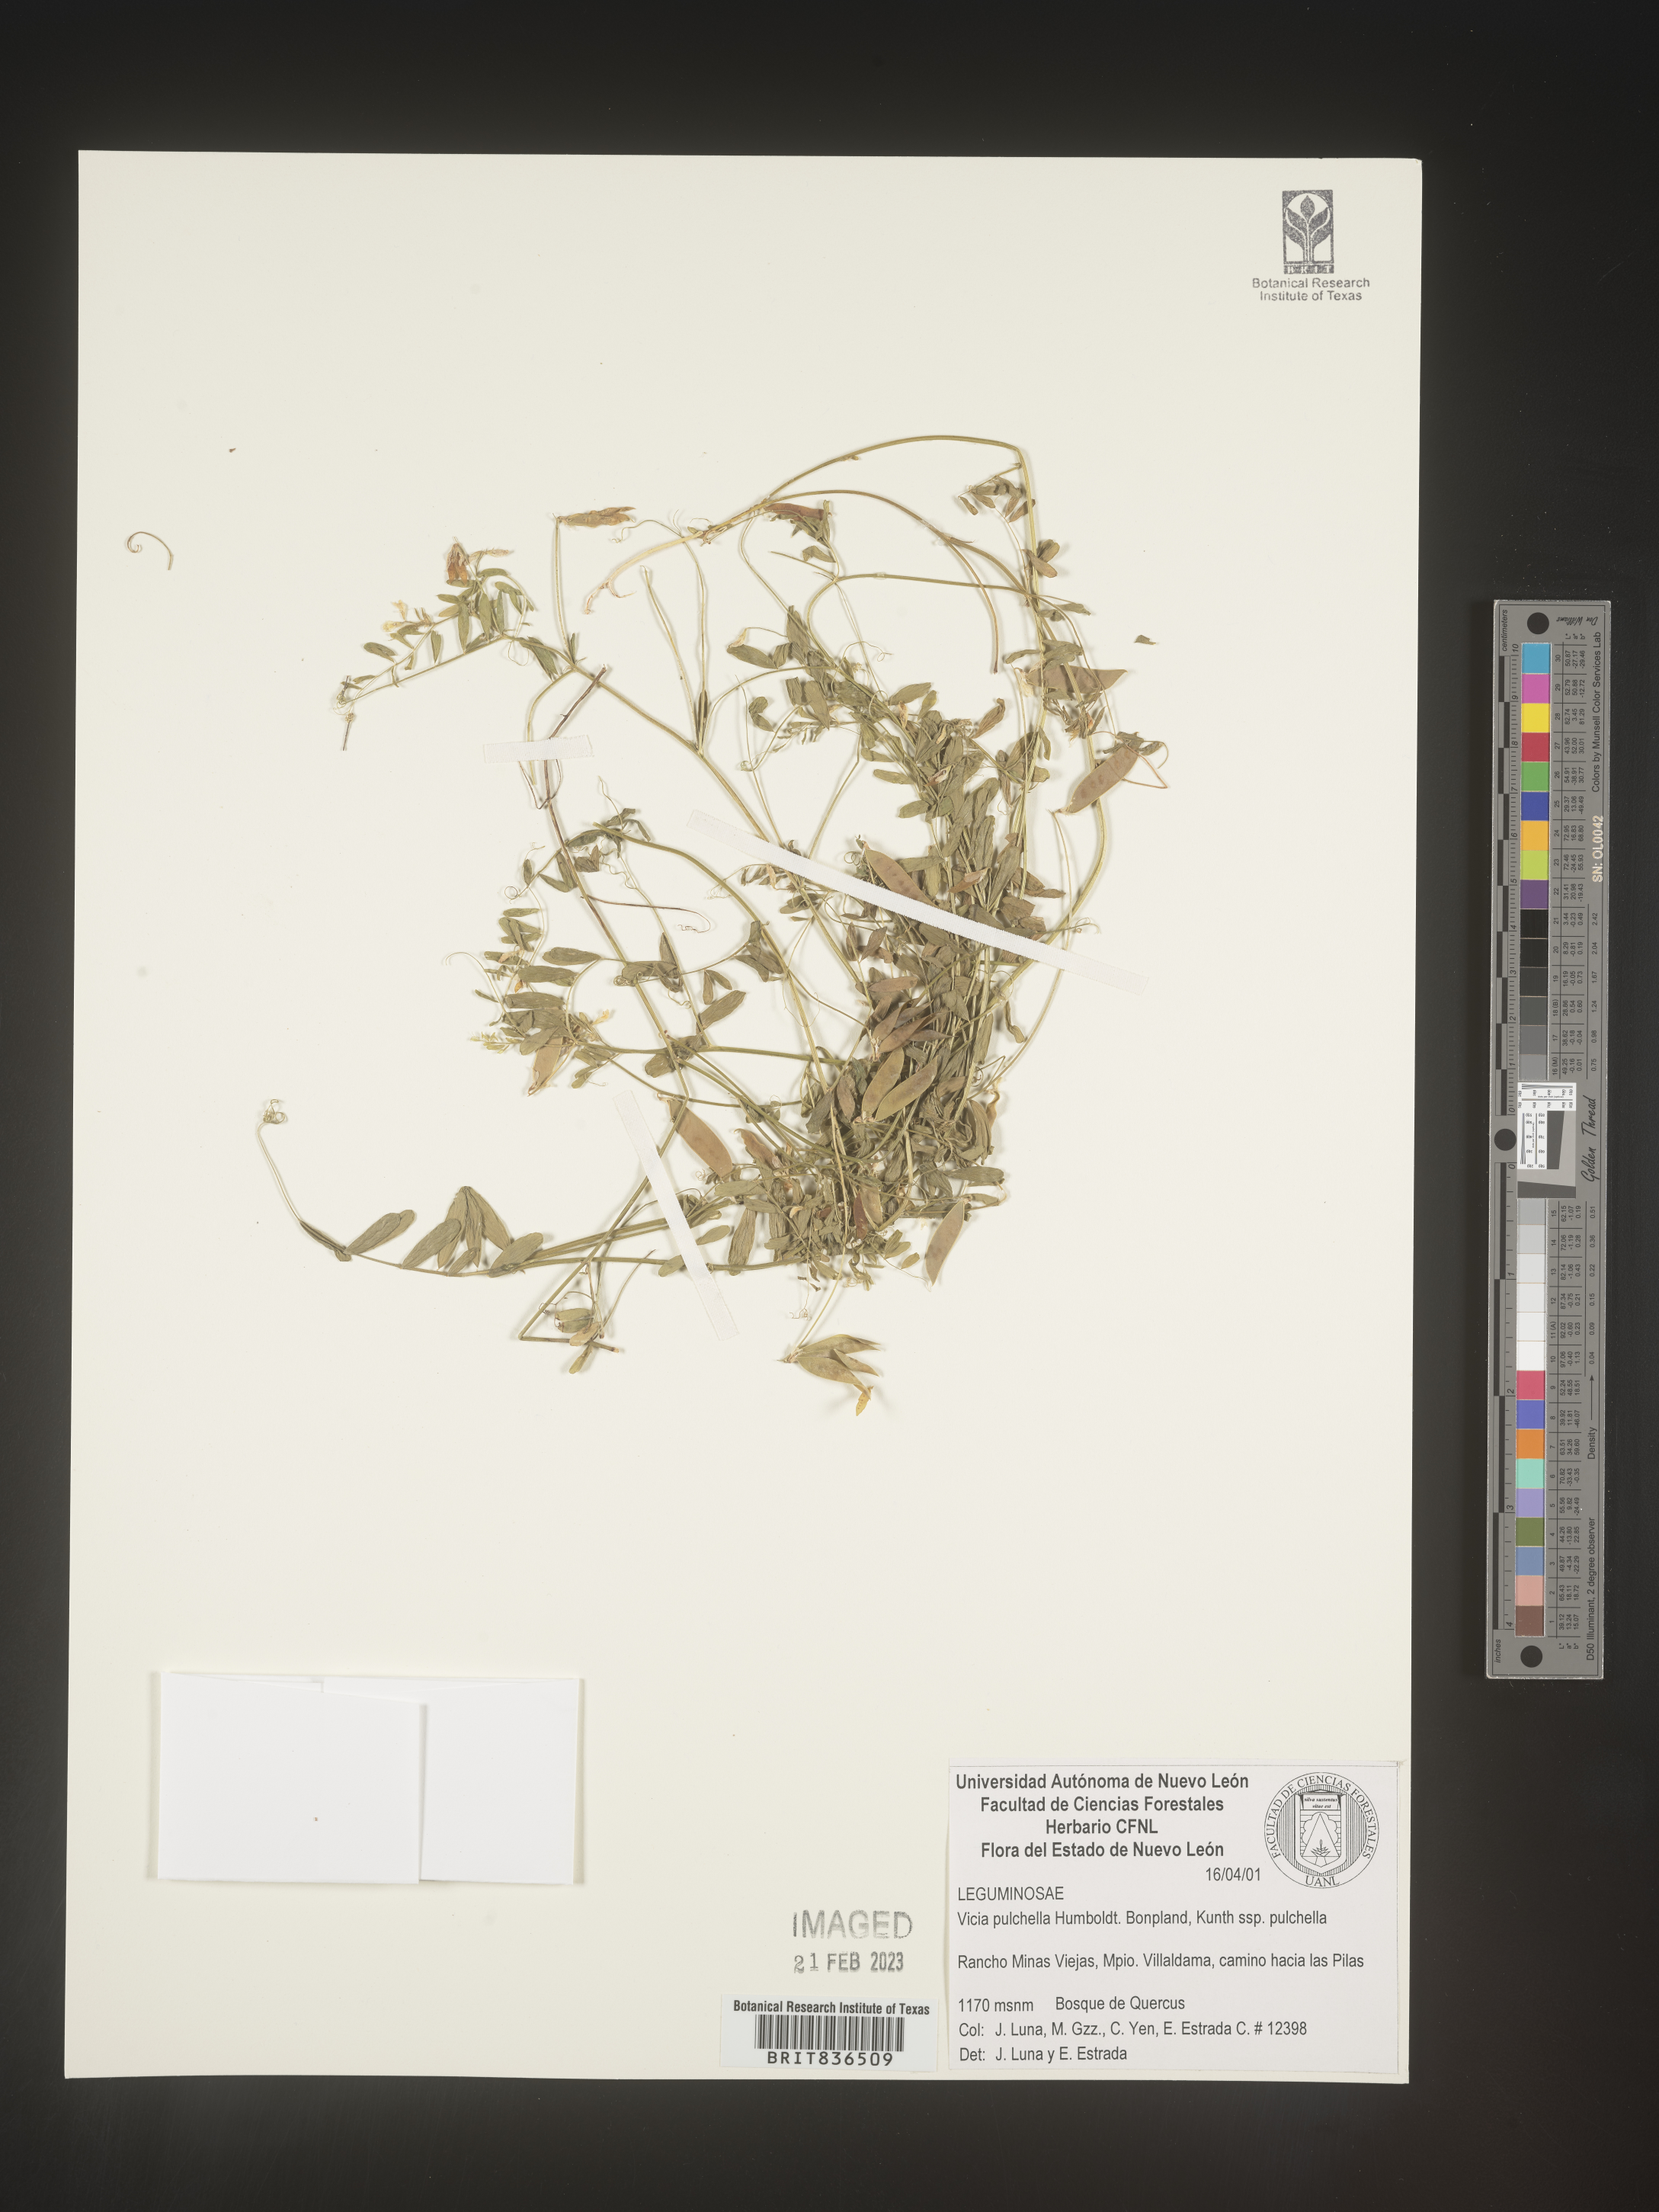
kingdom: Plantae
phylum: Tracheophyta
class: Magnoliopsida
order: Fabales
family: Fabaceae
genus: Vicia
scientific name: Vicia
